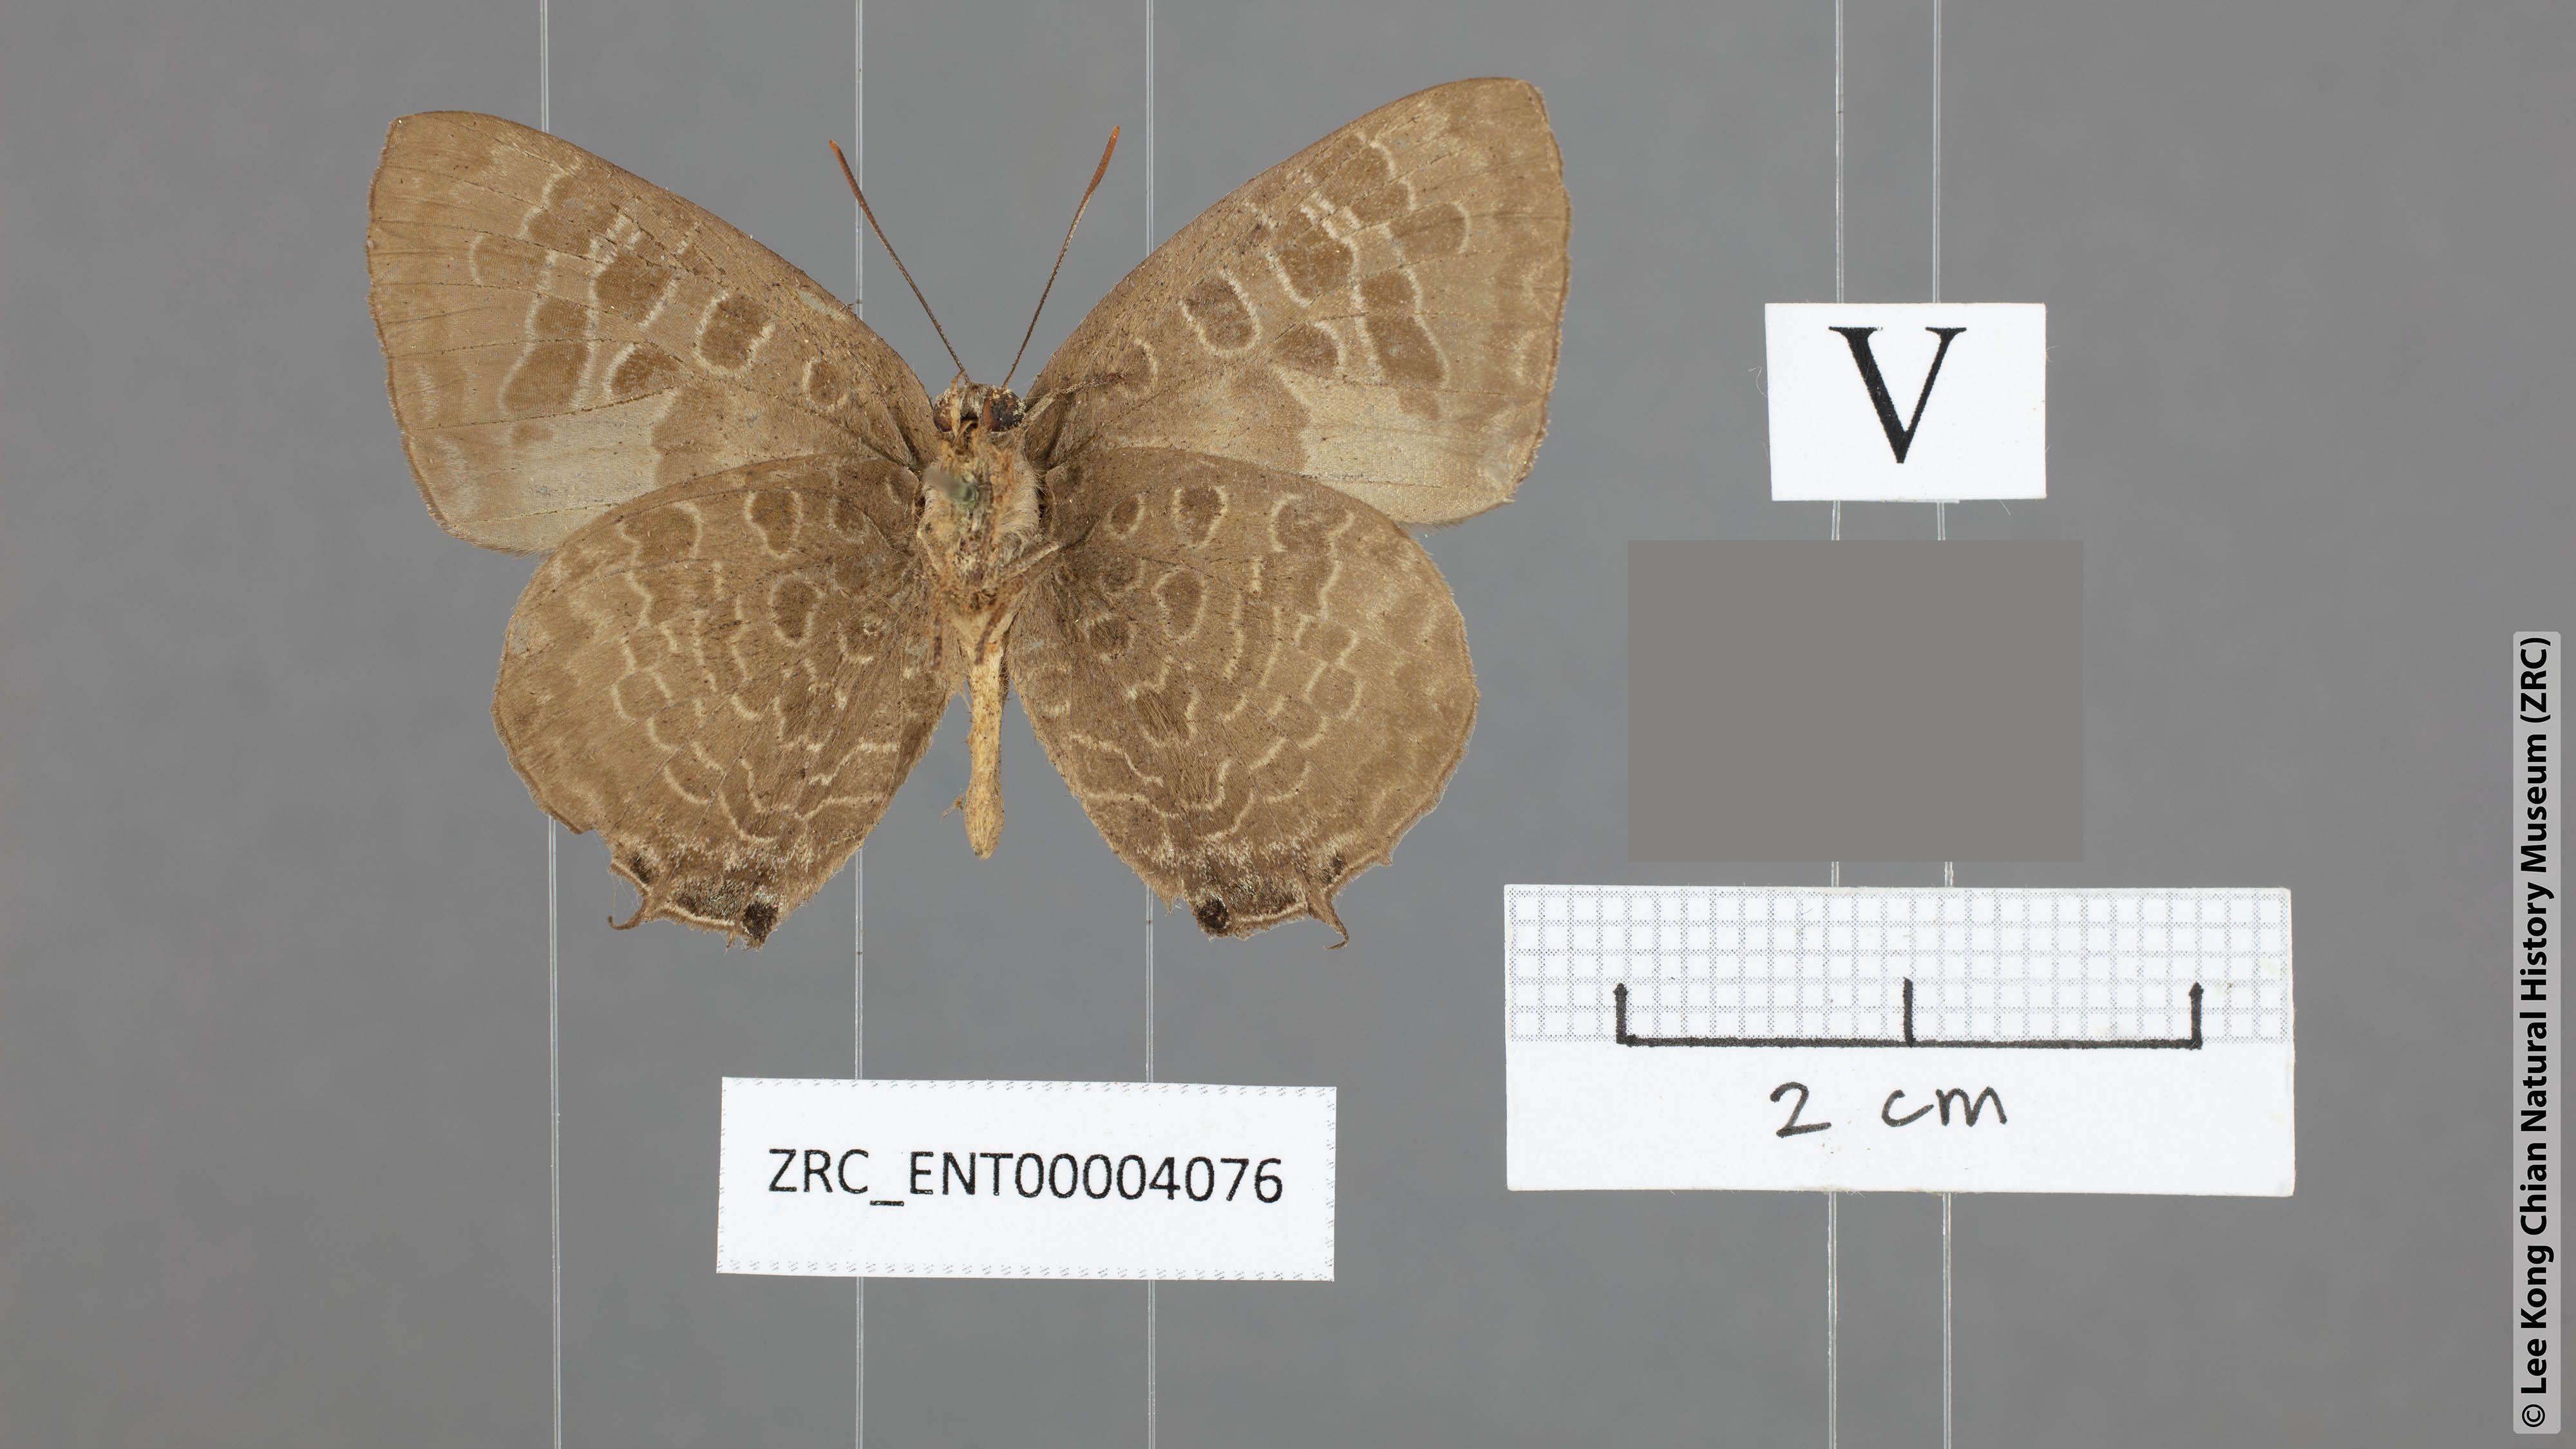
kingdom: Animalia
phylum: Arthropoda
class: Insecta
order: Lepidoptera
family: Lycaenidae
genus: Arhopala
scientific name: Arhopala hellenore
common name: Doherty's green oakblue
